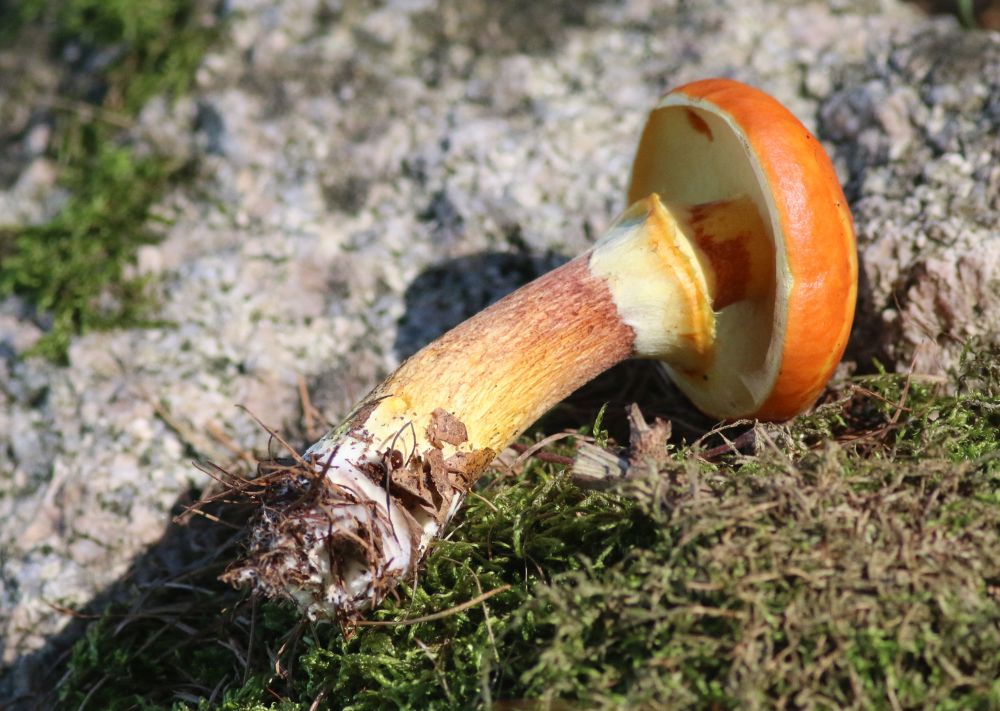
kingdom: Fungi
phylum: Basidiomycota
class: Agaricomycetes
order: Boletales
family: Suillaceae
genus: Suillus
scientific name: Suillus grevillei
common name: lærke-slimrørhat
